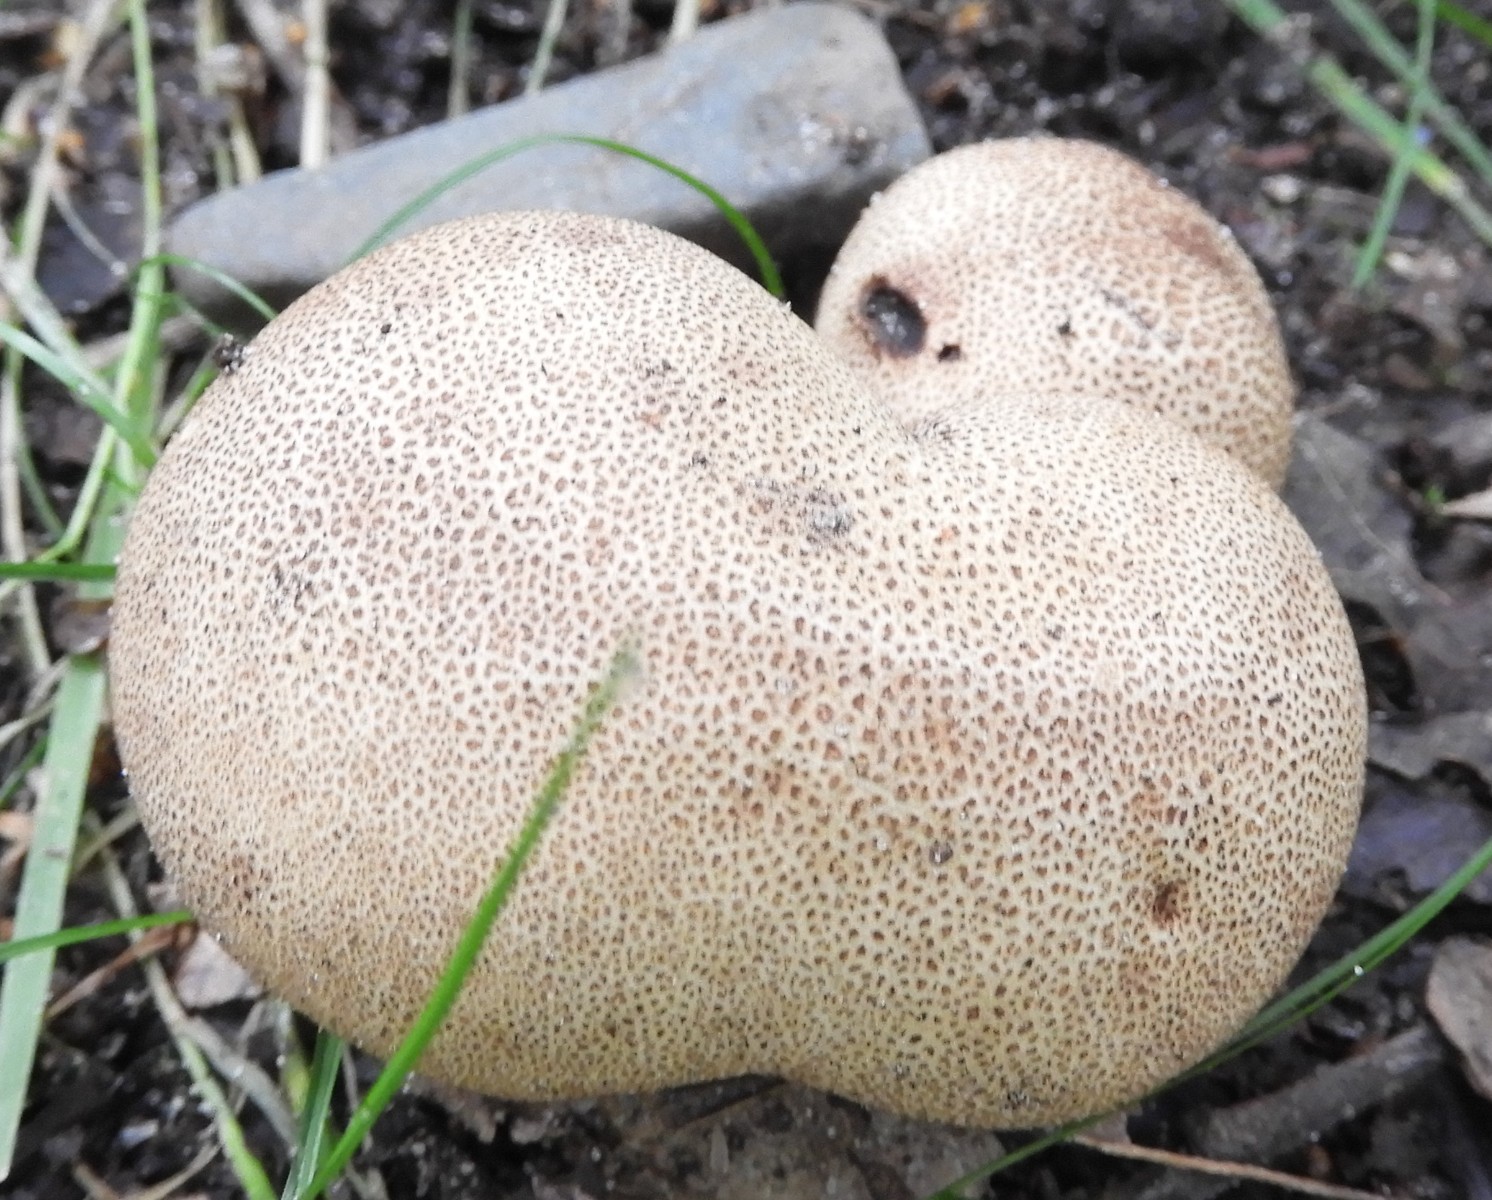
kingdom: Fungi
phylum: Basidiomycota
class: Agaricomycetes
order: Boletales
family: Sclerodermataceae
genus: Scleroderma
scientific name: Scleroderma areolatum
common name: plettet bruskbold
